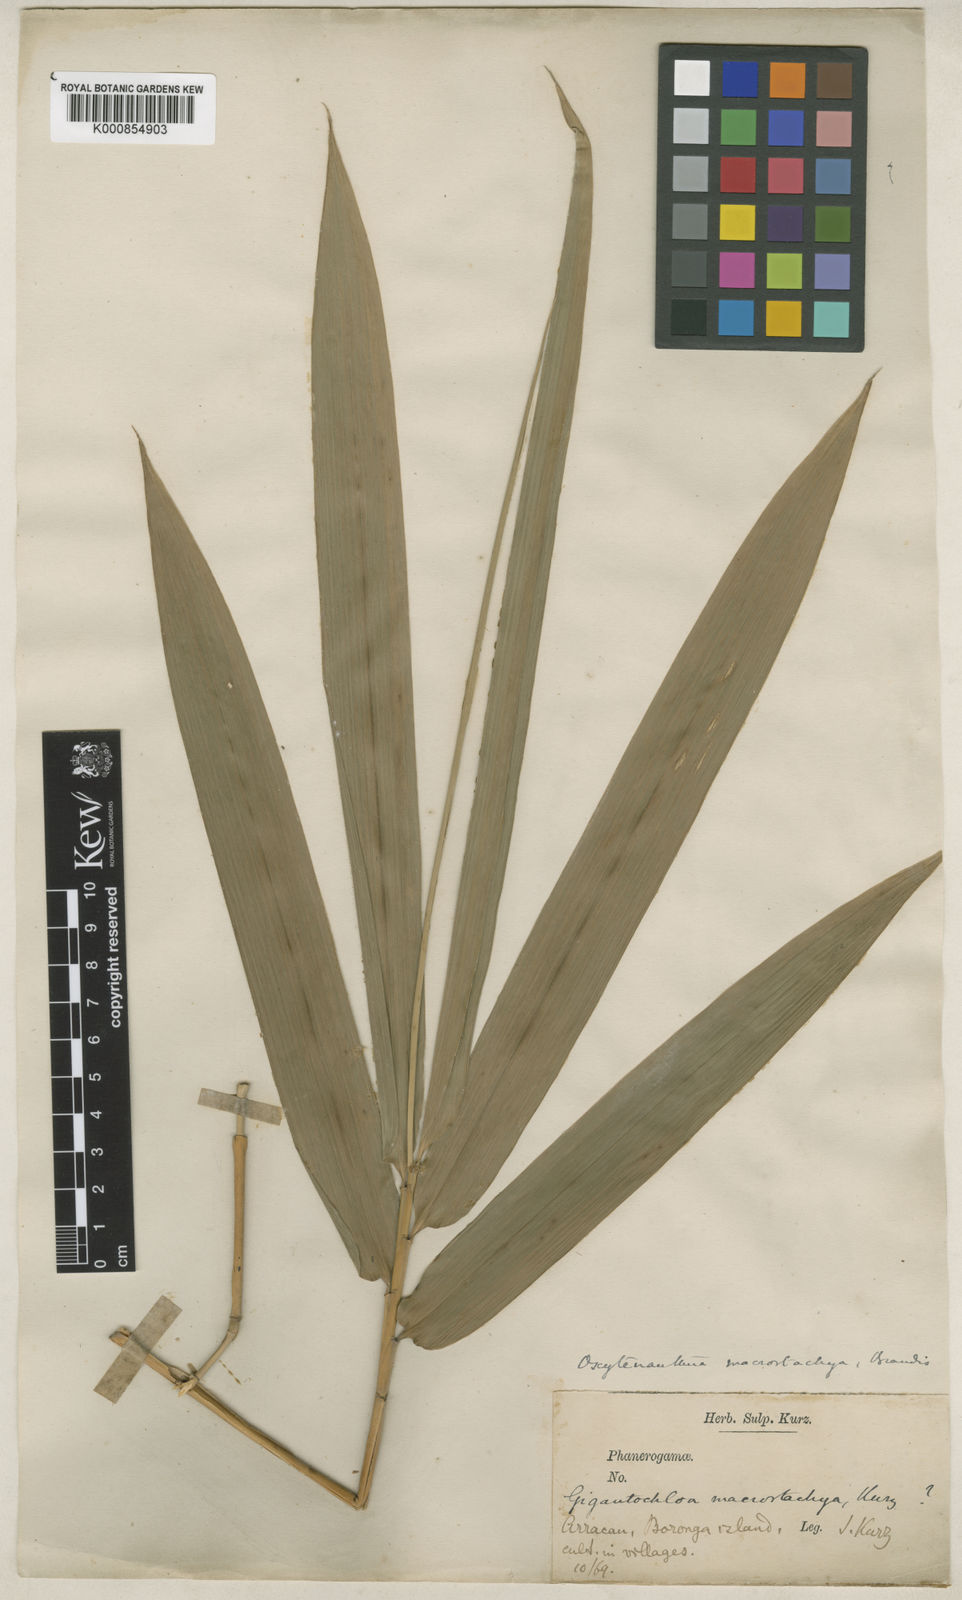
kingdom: Plantae
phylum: Tracheophyta
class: Liliopsida
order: Poales
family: Poaceae
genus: Gigantochloa
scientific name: Gigantochloa macrostachya
